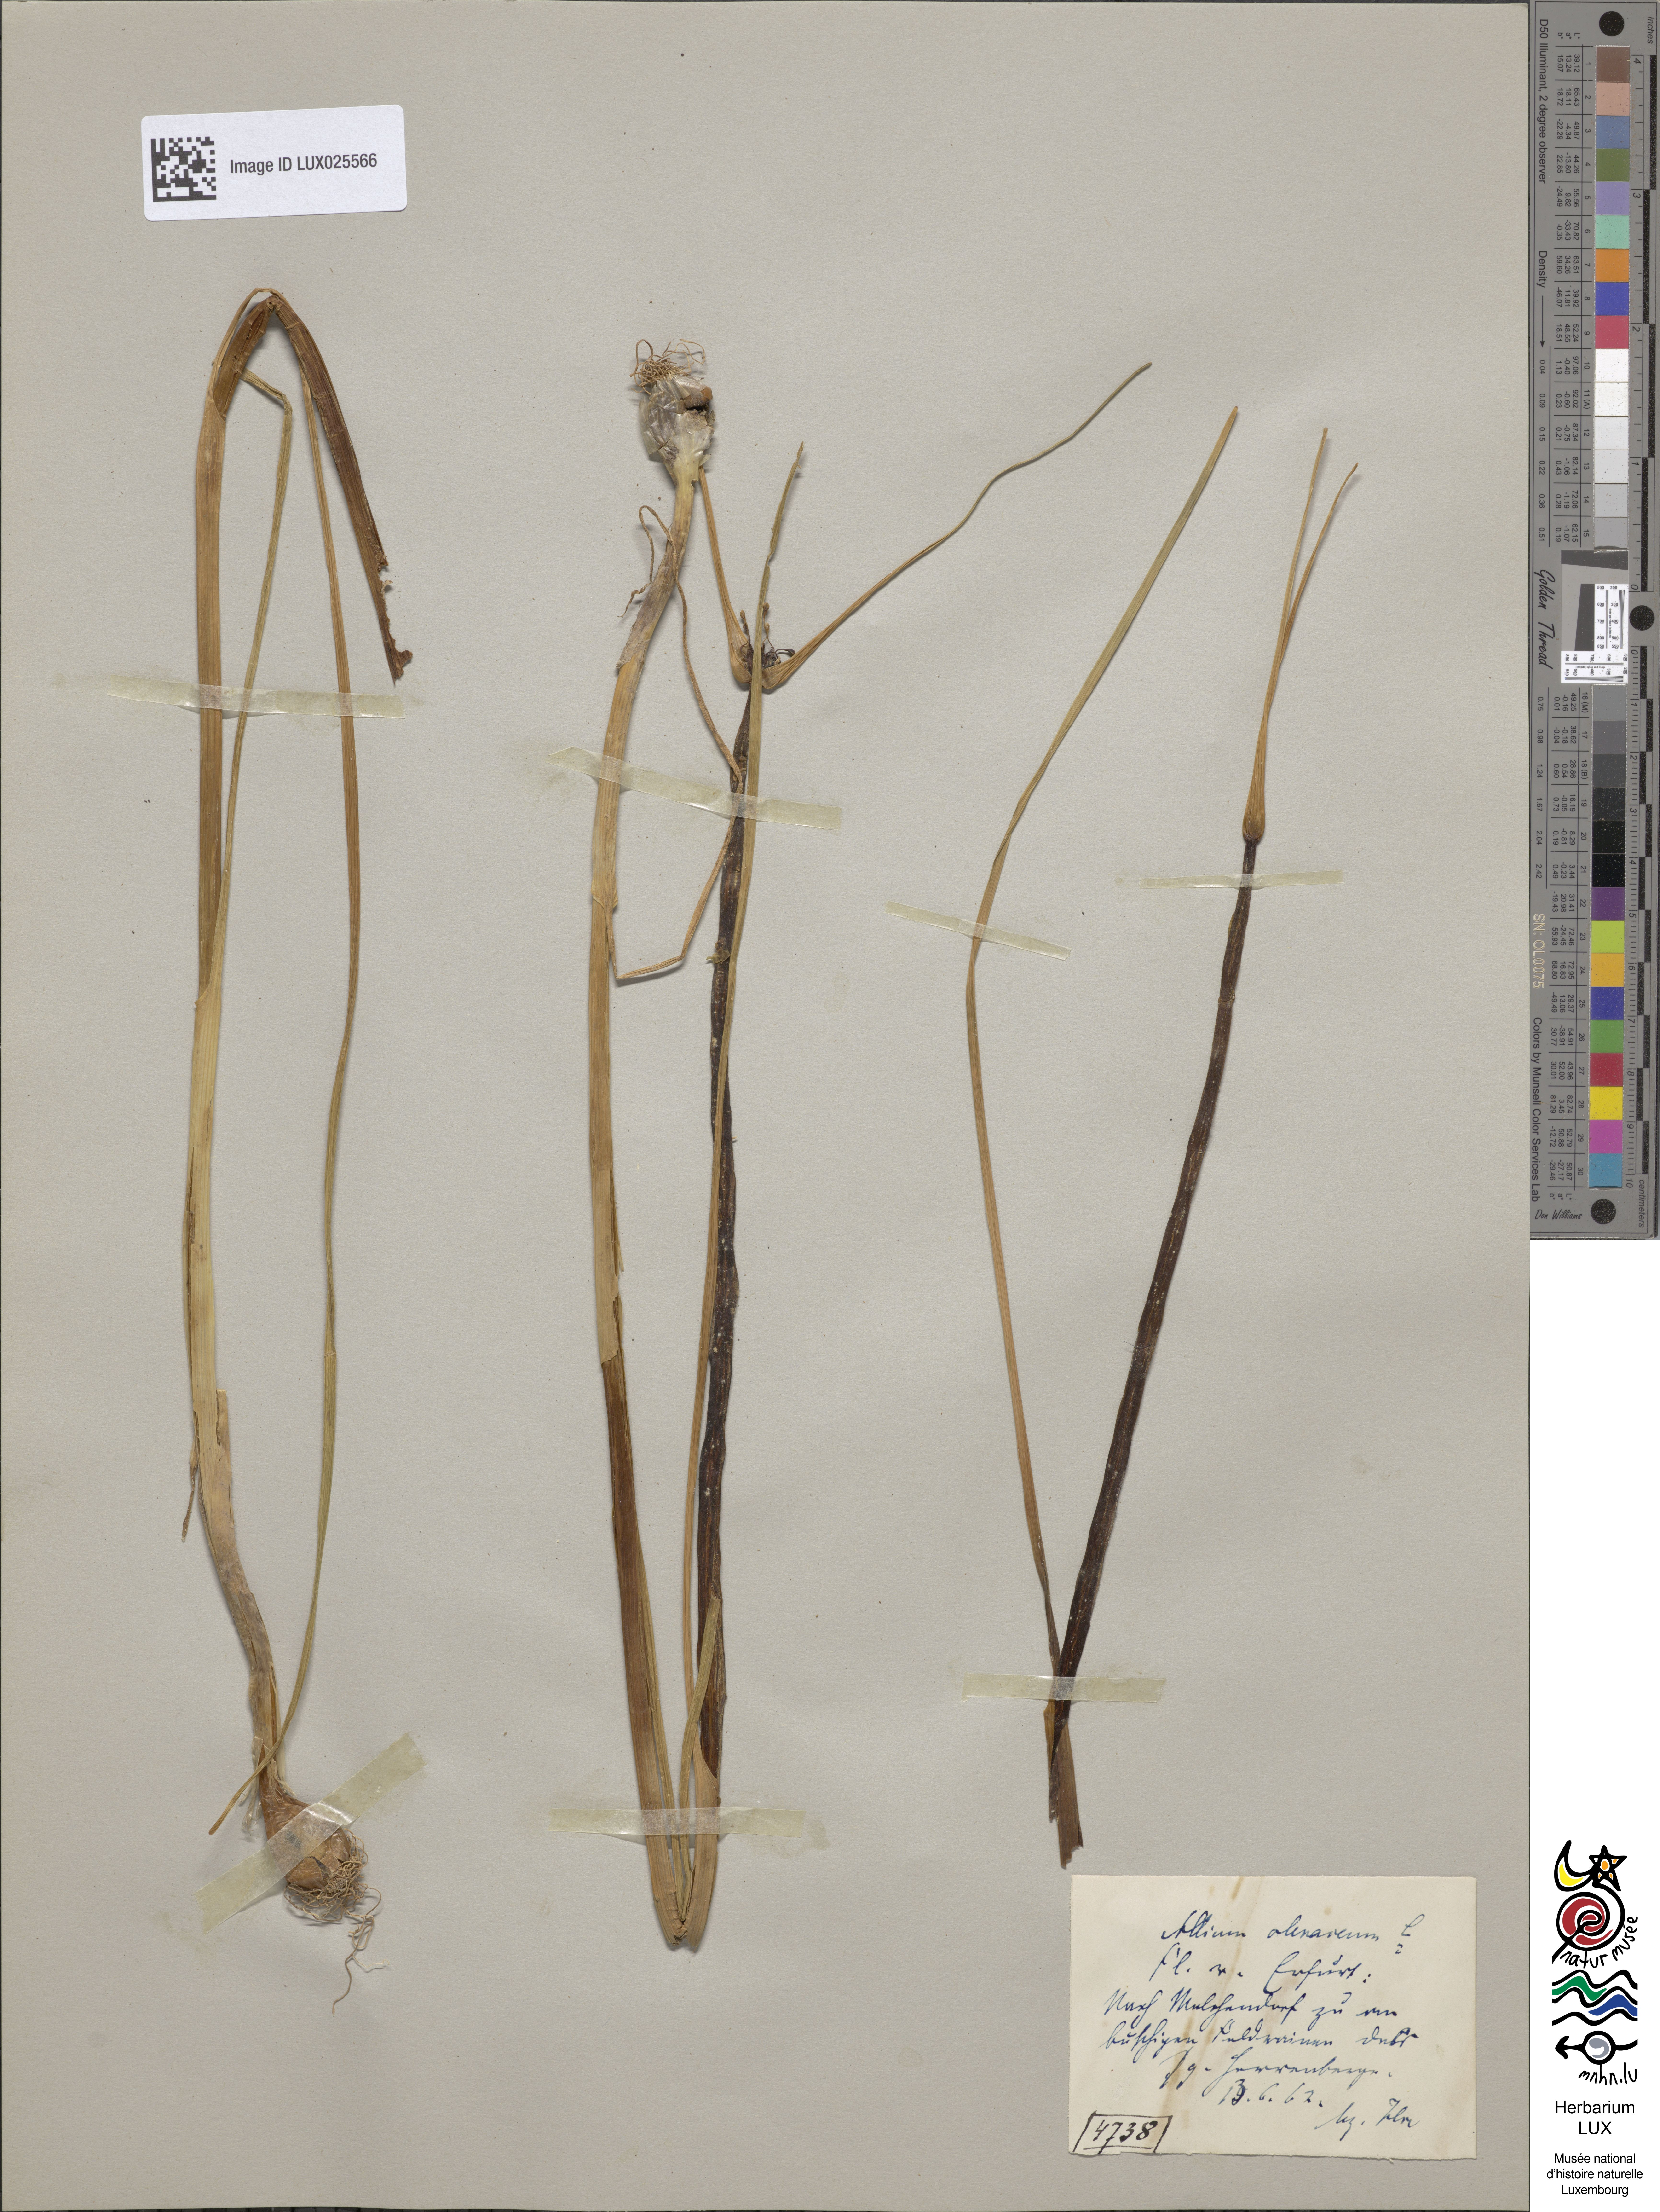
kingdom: Plantae
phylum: Tracheophyta
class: Liliopsida
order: Asparagales
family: Amaryllidaceae
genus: Allium
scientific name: Allium oleraceum
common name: Field garlic
